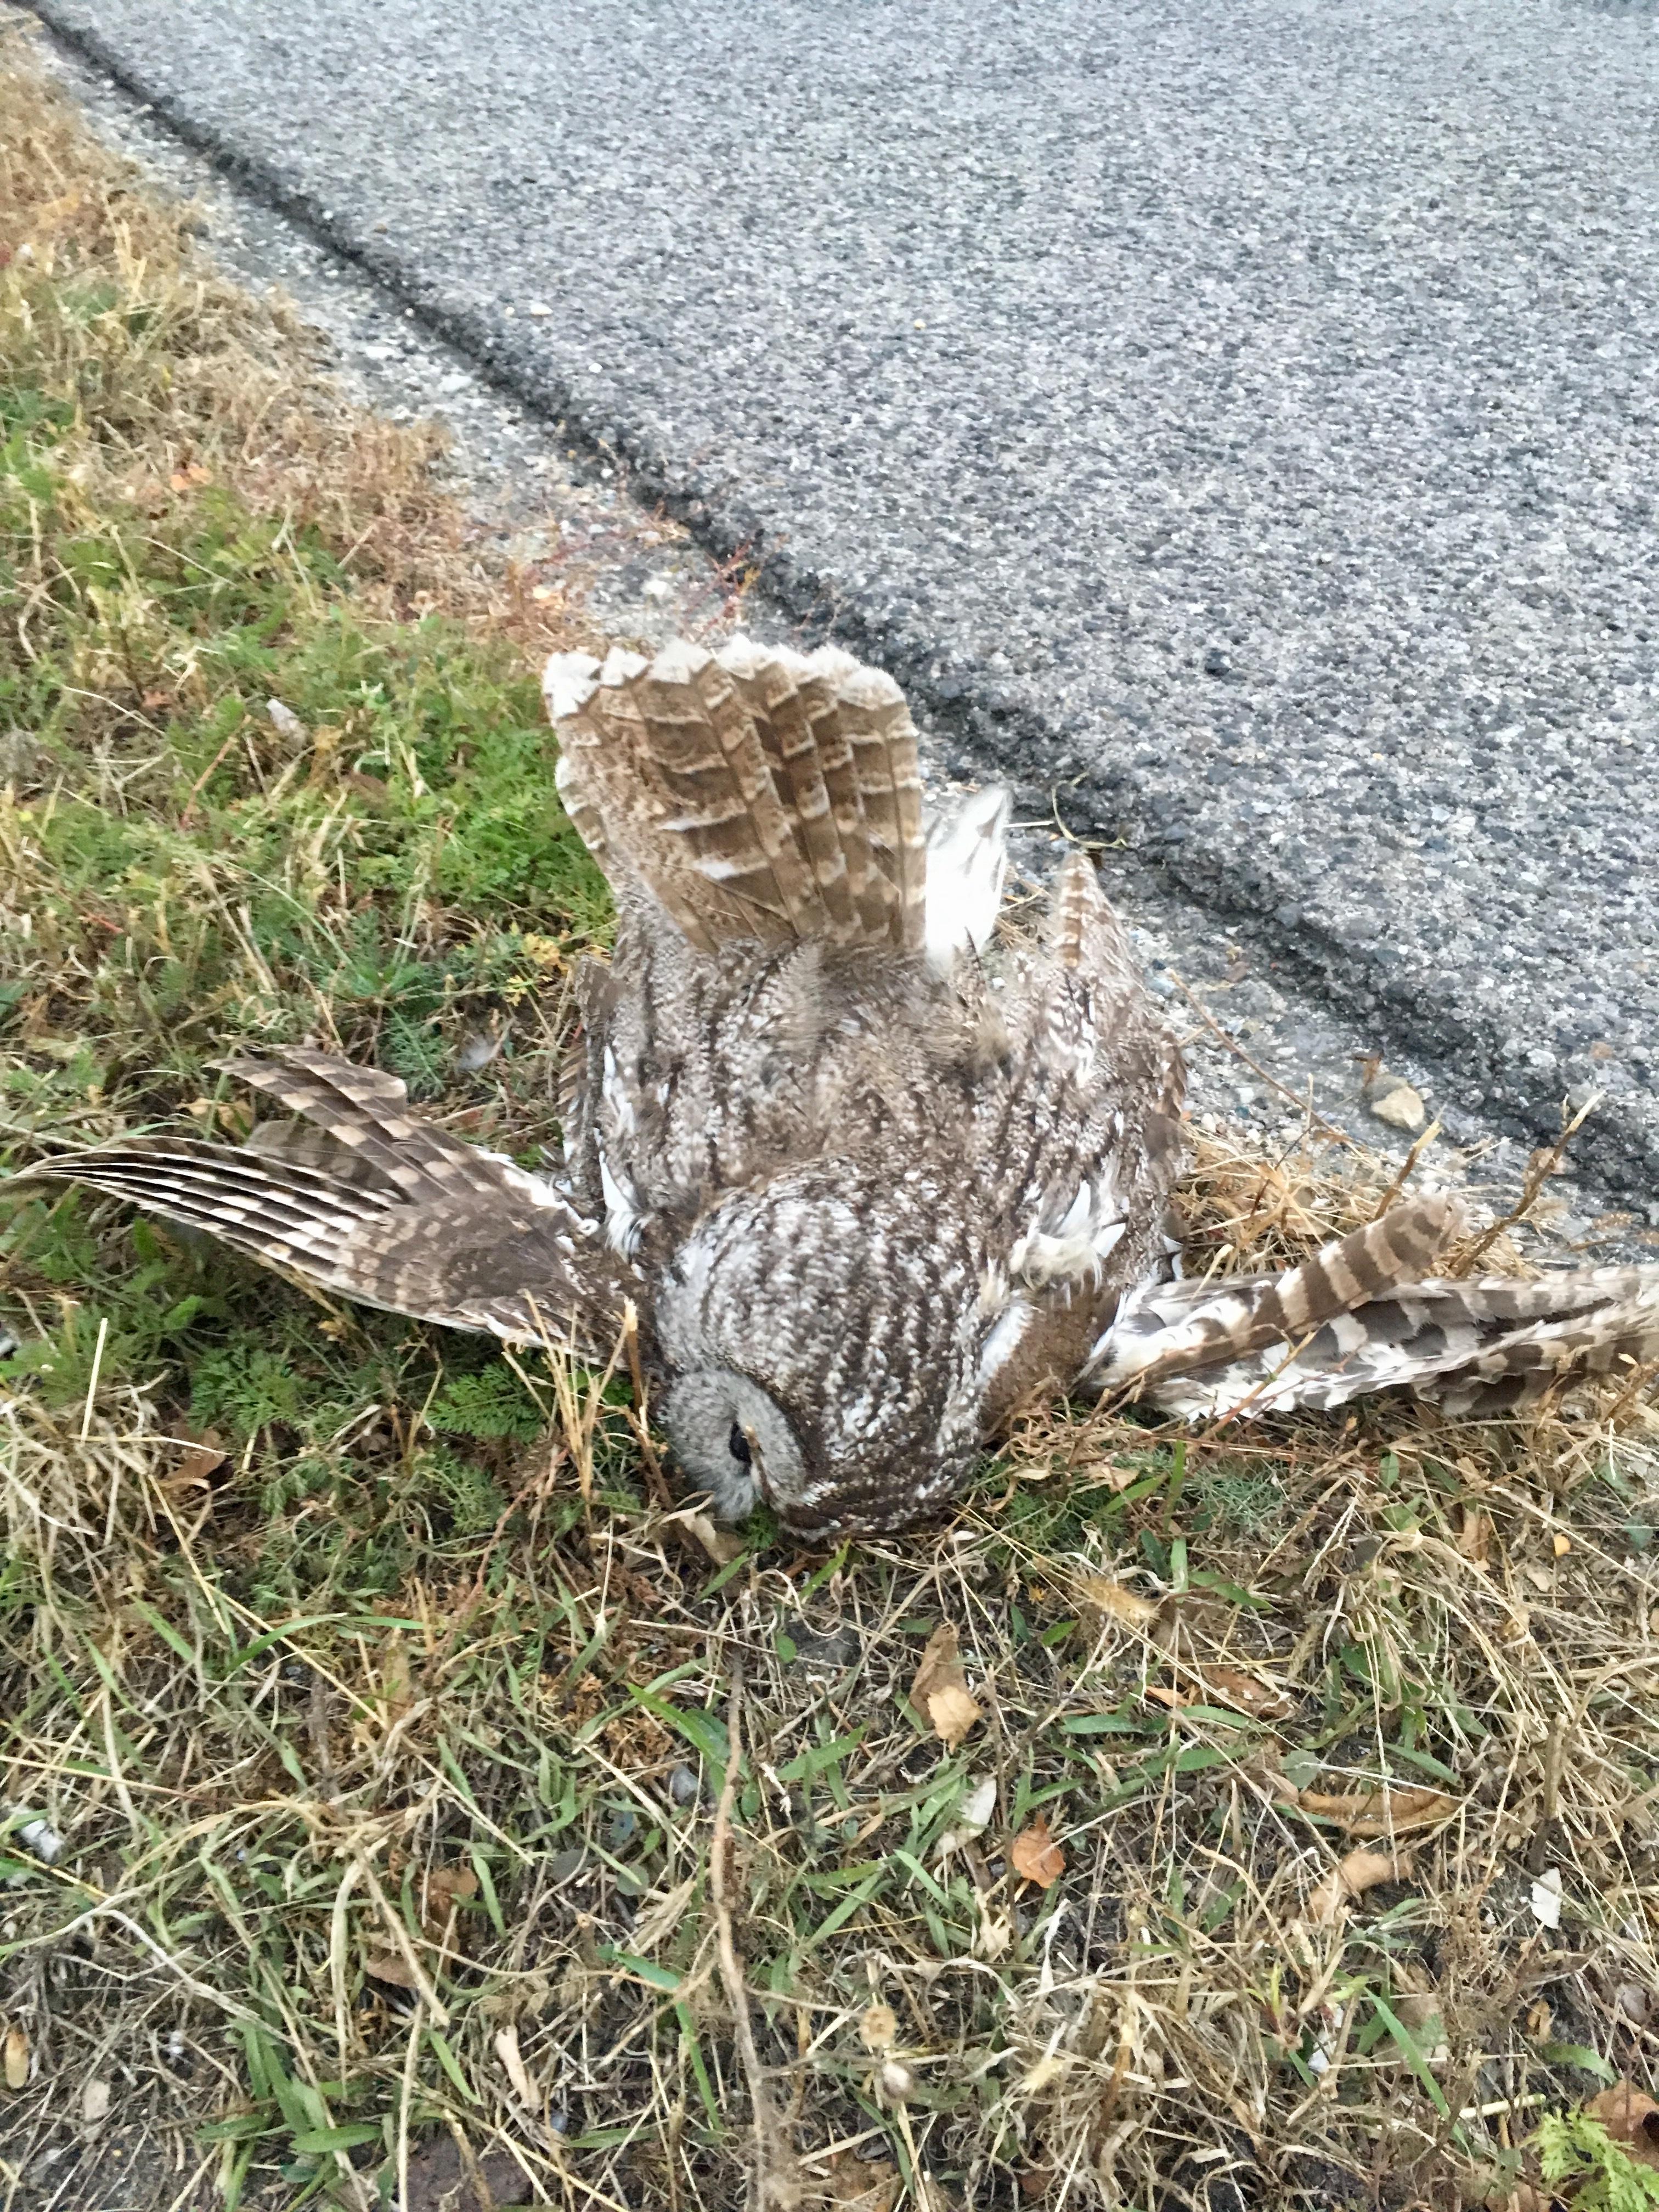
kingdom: Animalia
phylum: Chordata
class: Aves
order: Strigiformes
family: Strigidae
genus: Strix
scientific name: Strix aluco
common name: Tawny owl
